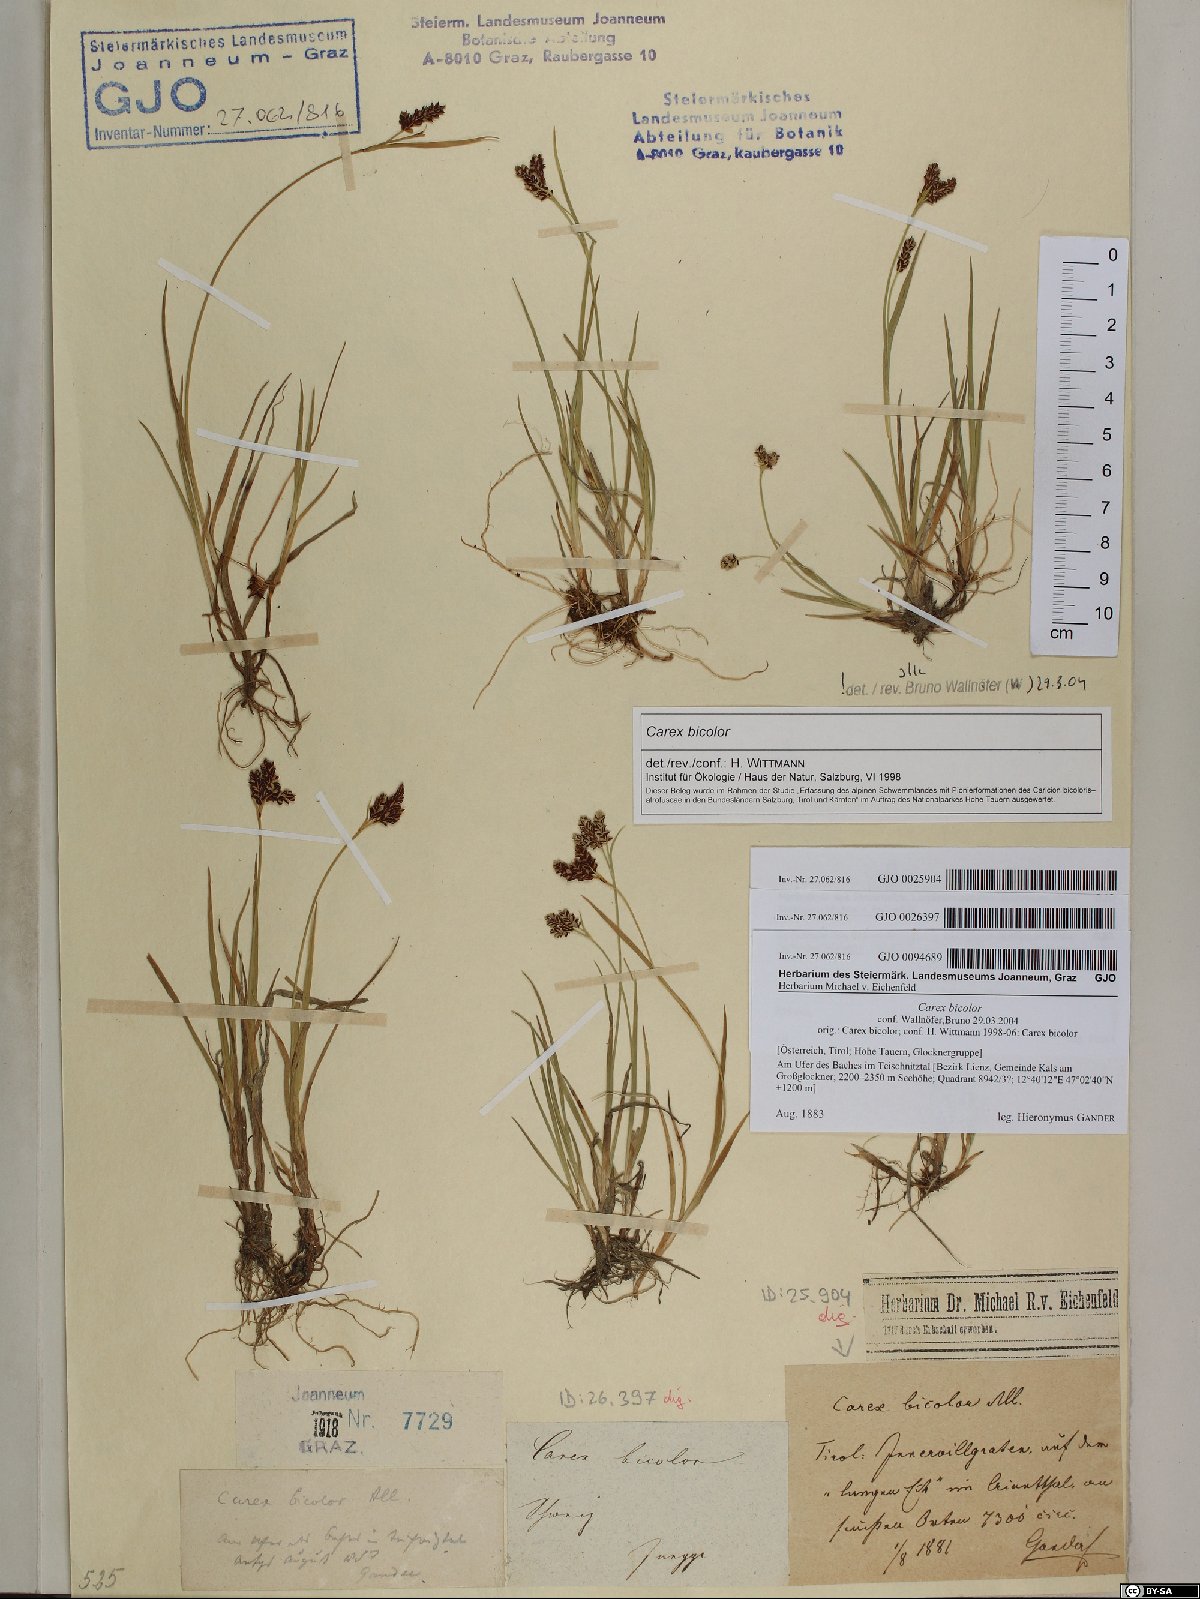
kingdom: Plantae
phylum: Tracheophyta
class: Liliopsida
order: Poales
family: Cyperaceae
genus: Carex
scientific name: Carex bicolor
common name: Bicoloured sedge
